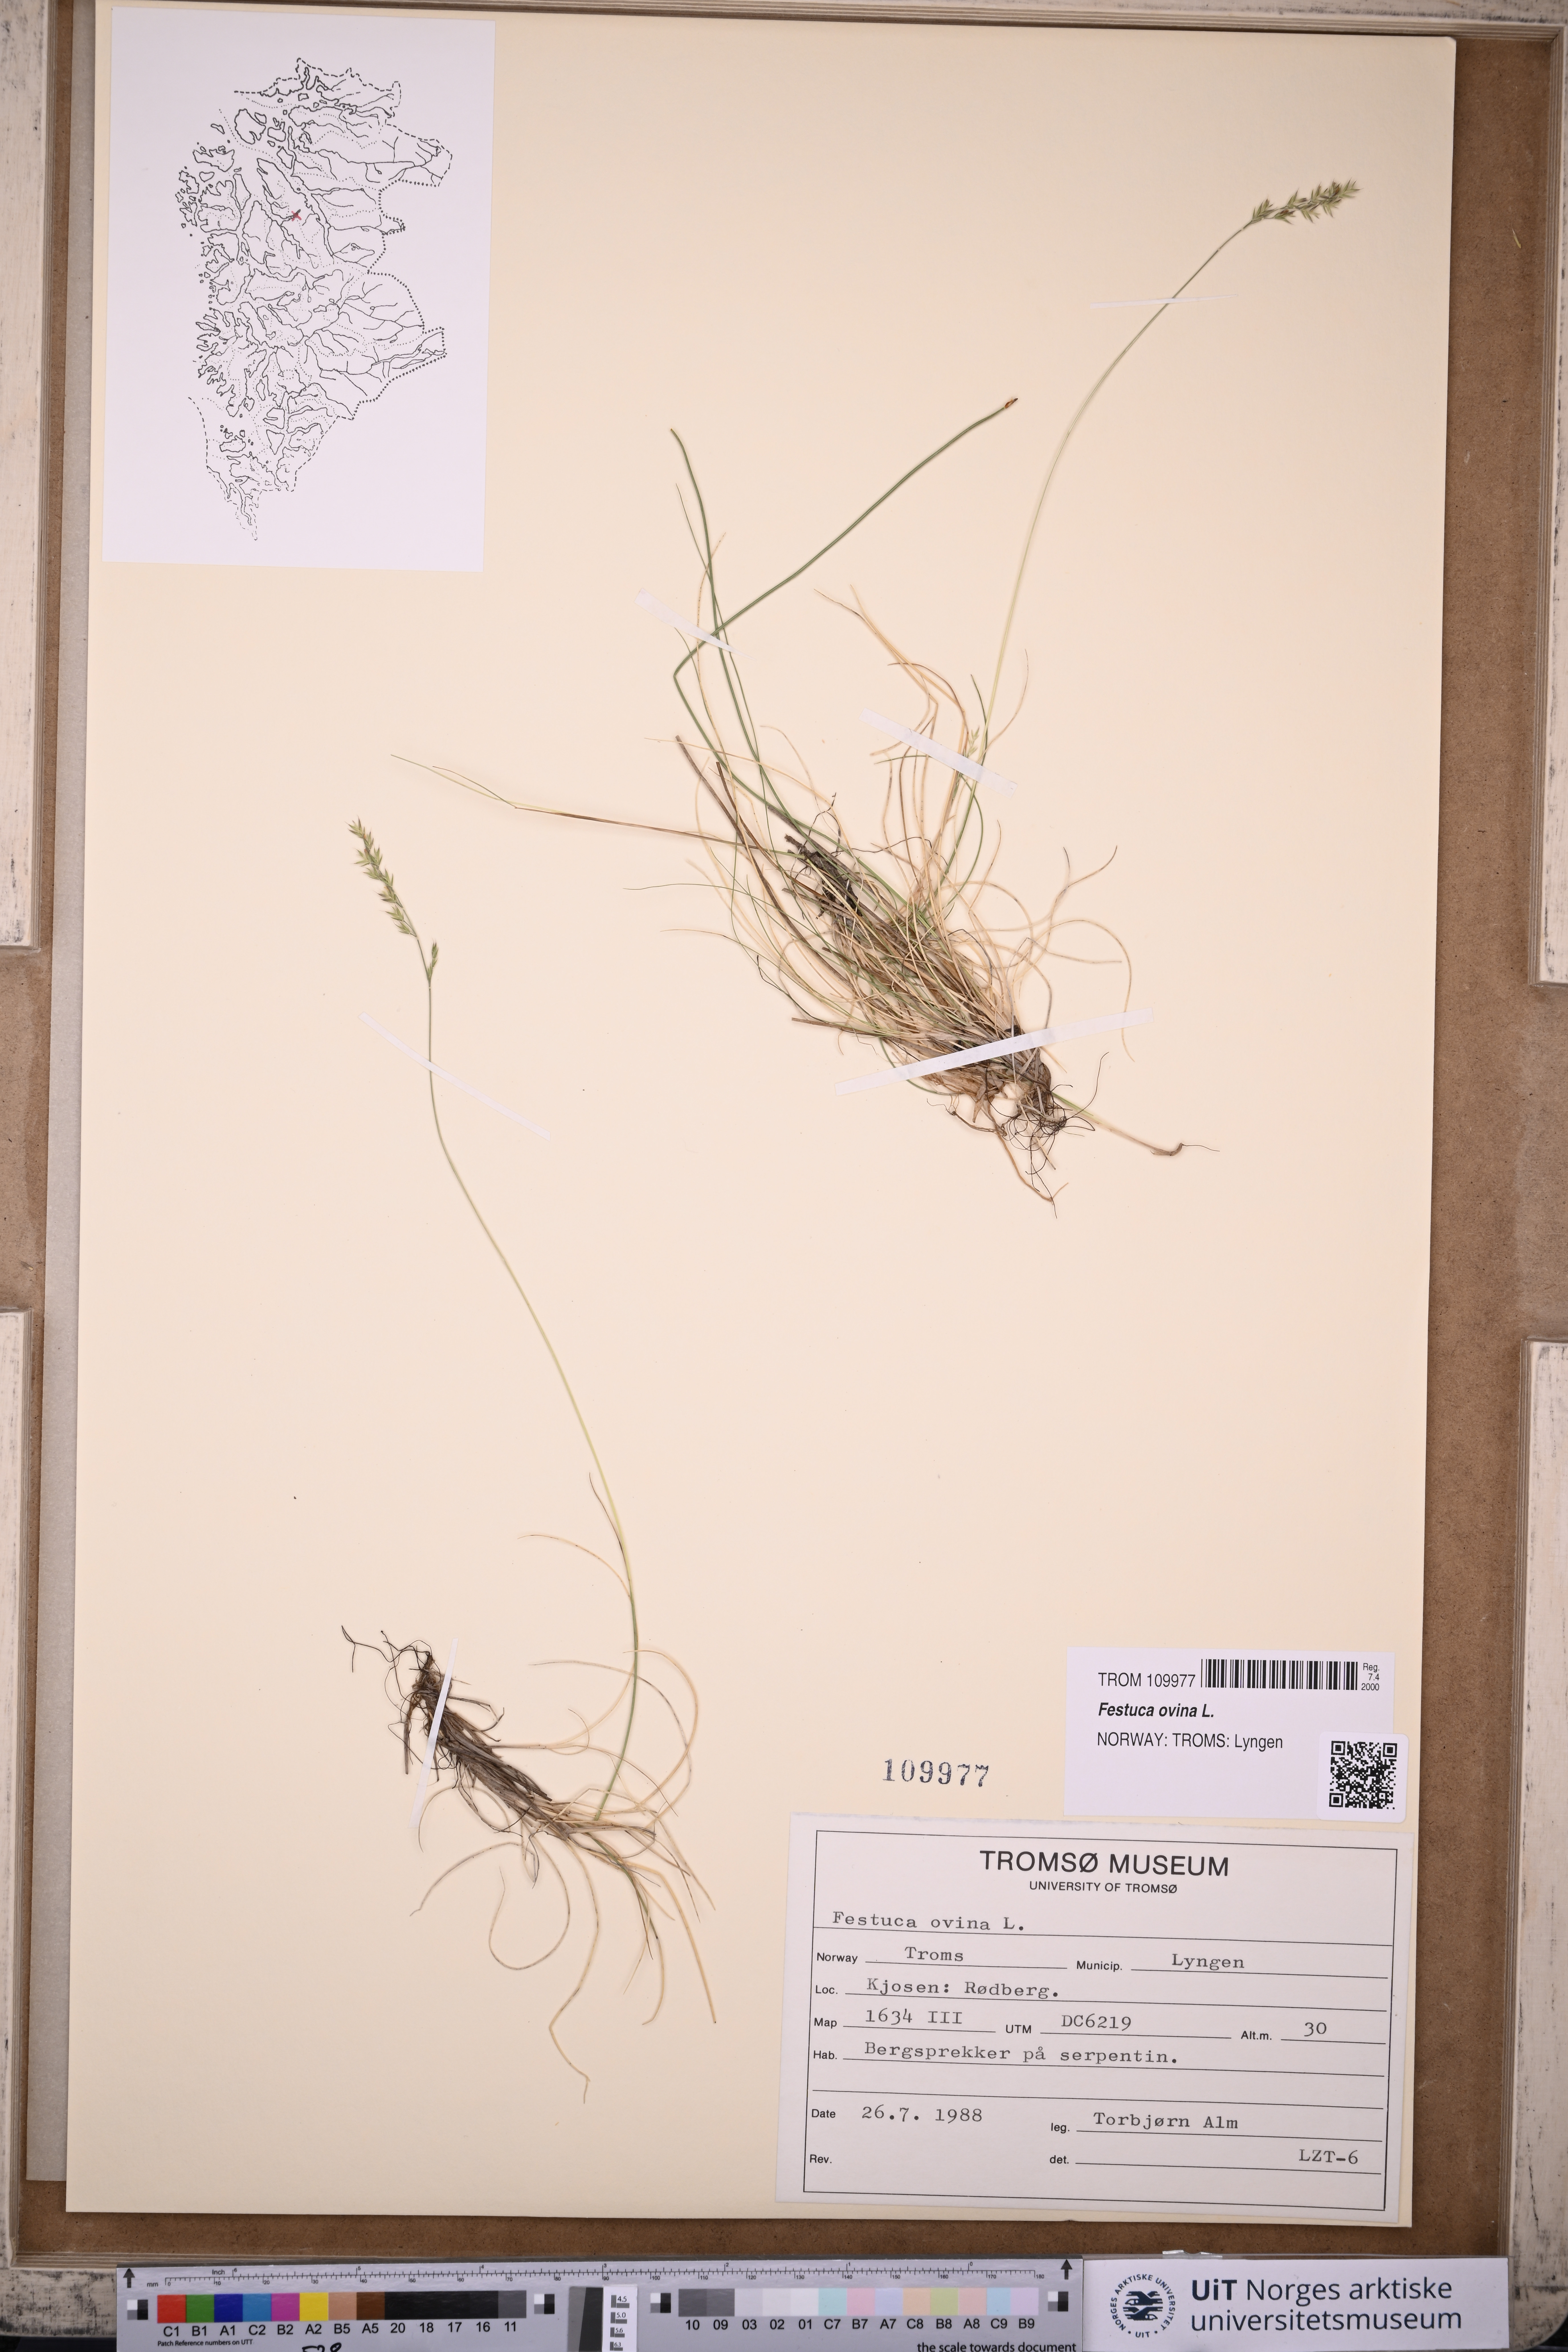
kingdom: Plantae
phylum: Tracheophyta
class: Liliopsida
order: Poales
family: Poaceae
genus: Festuca
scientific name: Festuca ovina
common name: Sheep fescue
